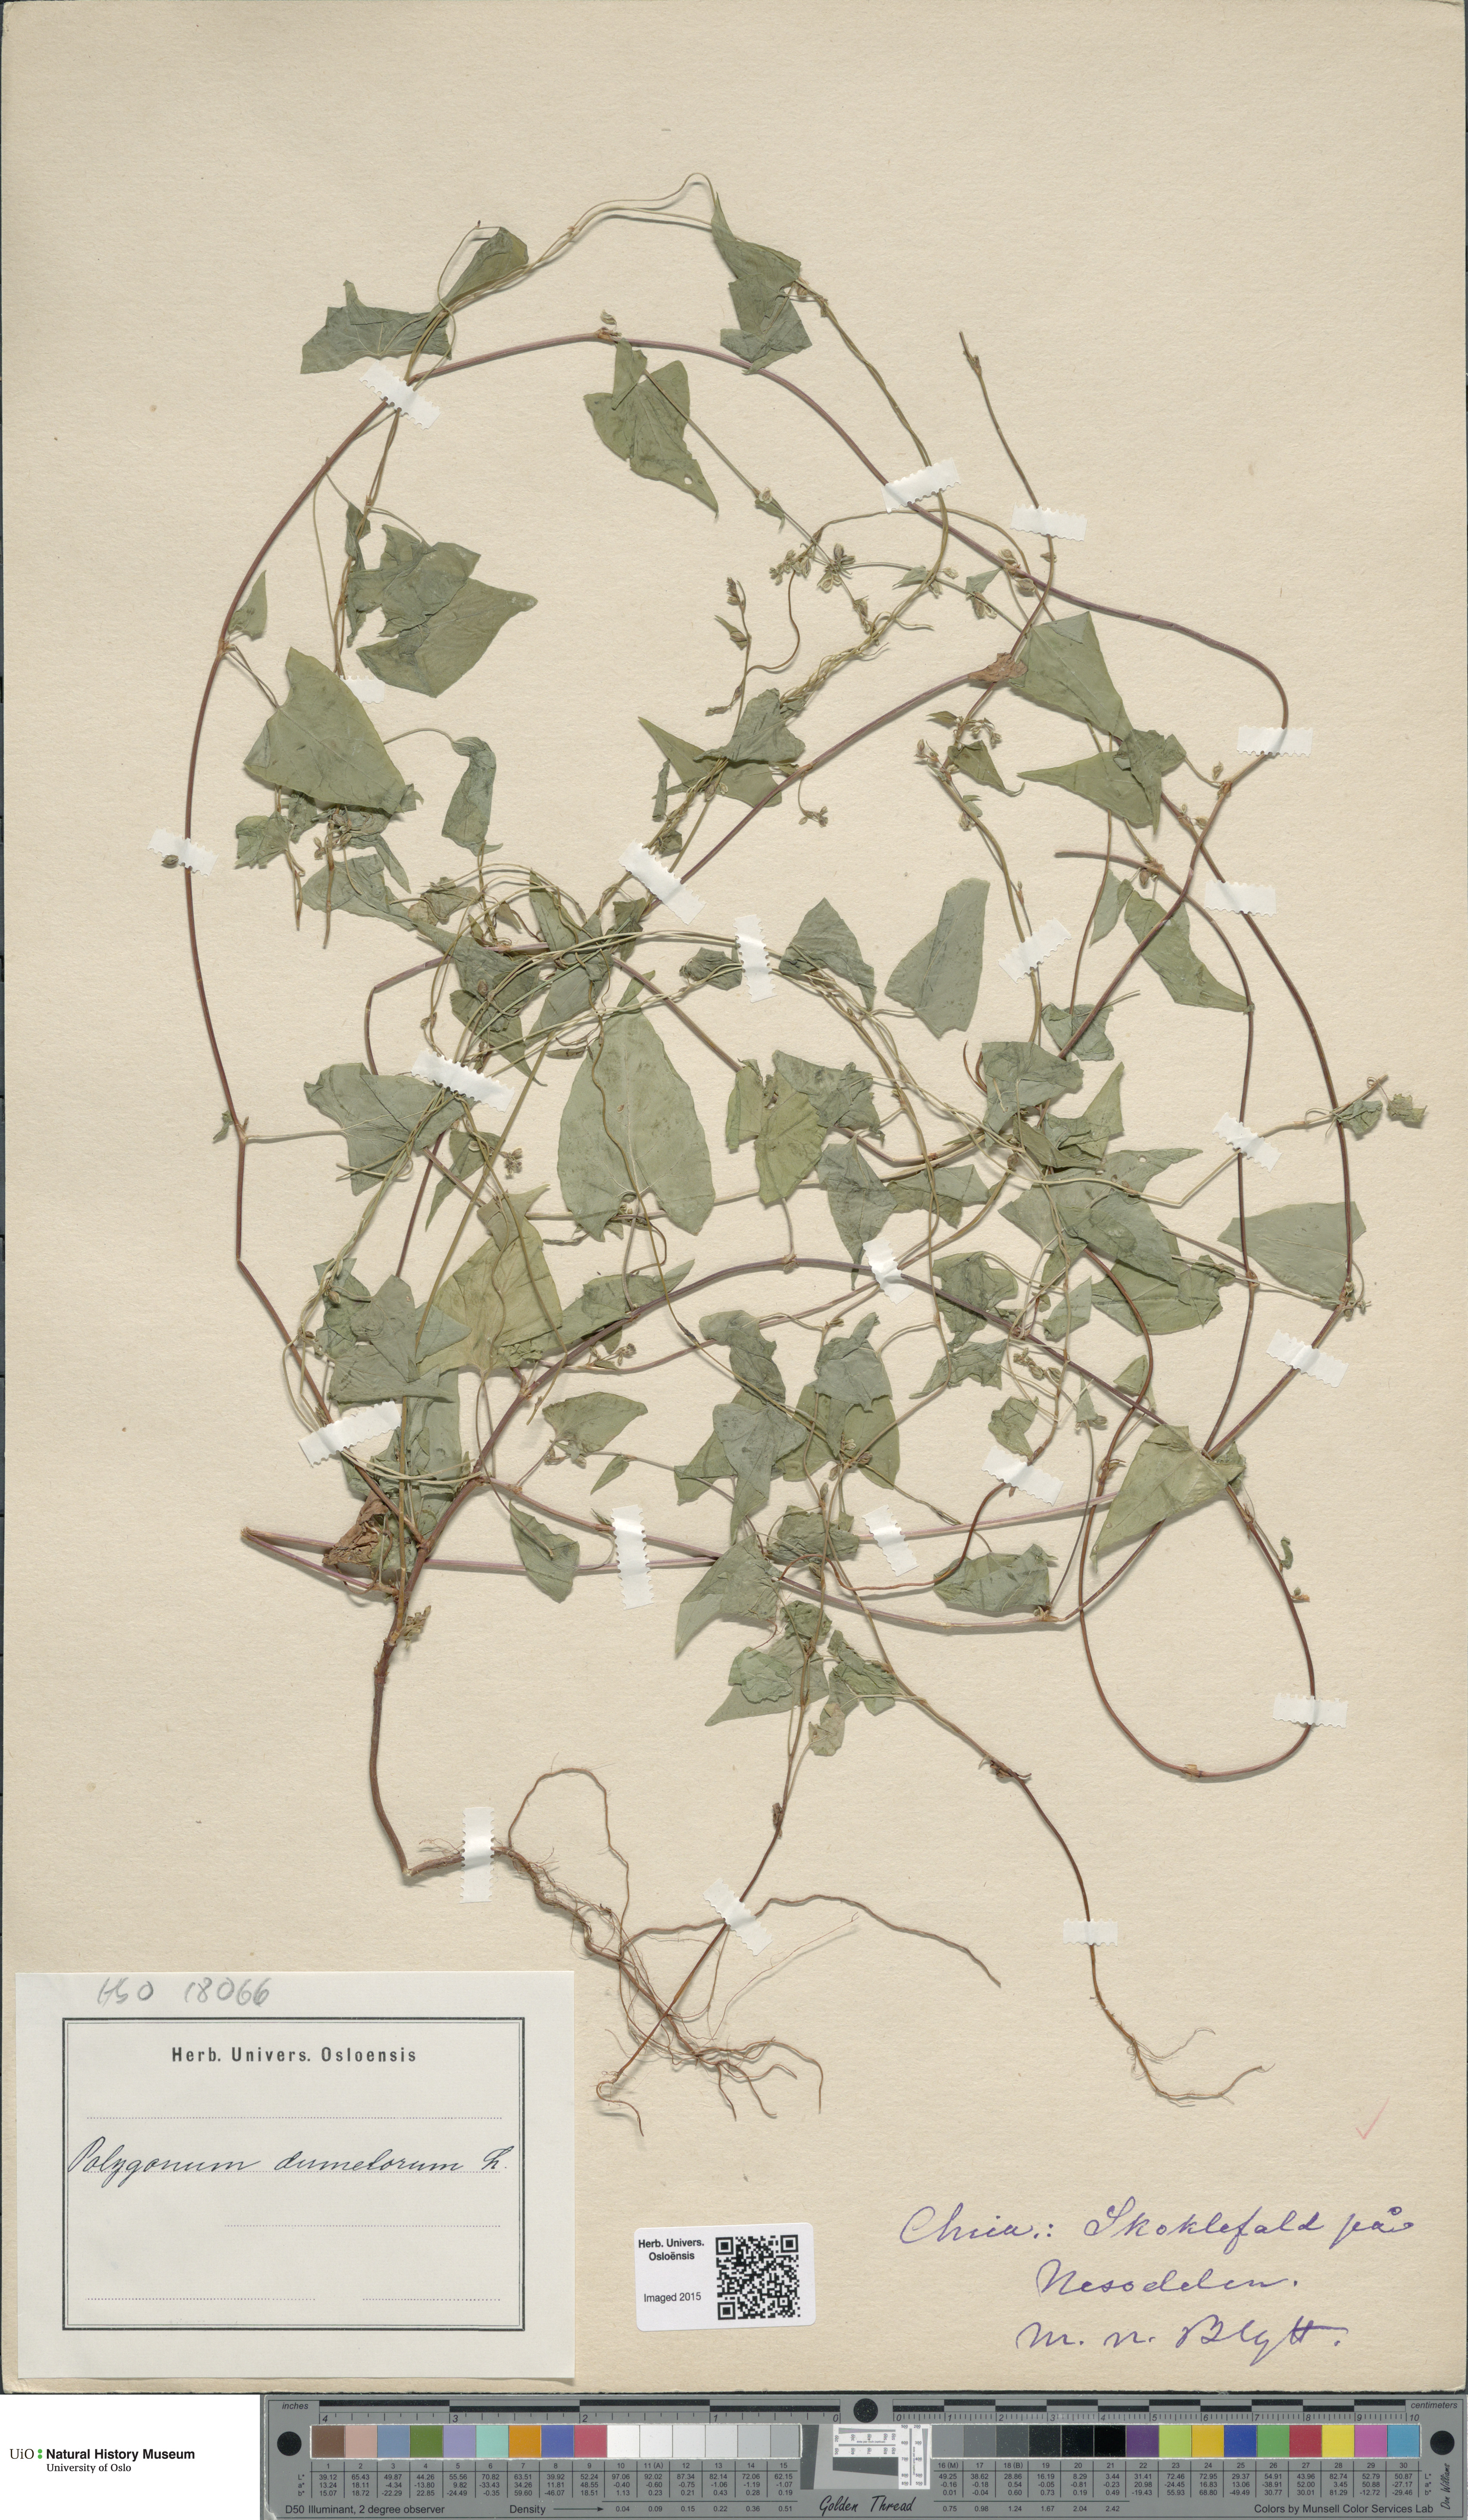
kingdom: Plantae
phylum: Tracheophyta
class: Magnoliopsida
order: Caryophyllales
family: Polygonaceae
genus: Fallopia
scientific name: Fallopia dumetorum
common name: Copse-bindweed
